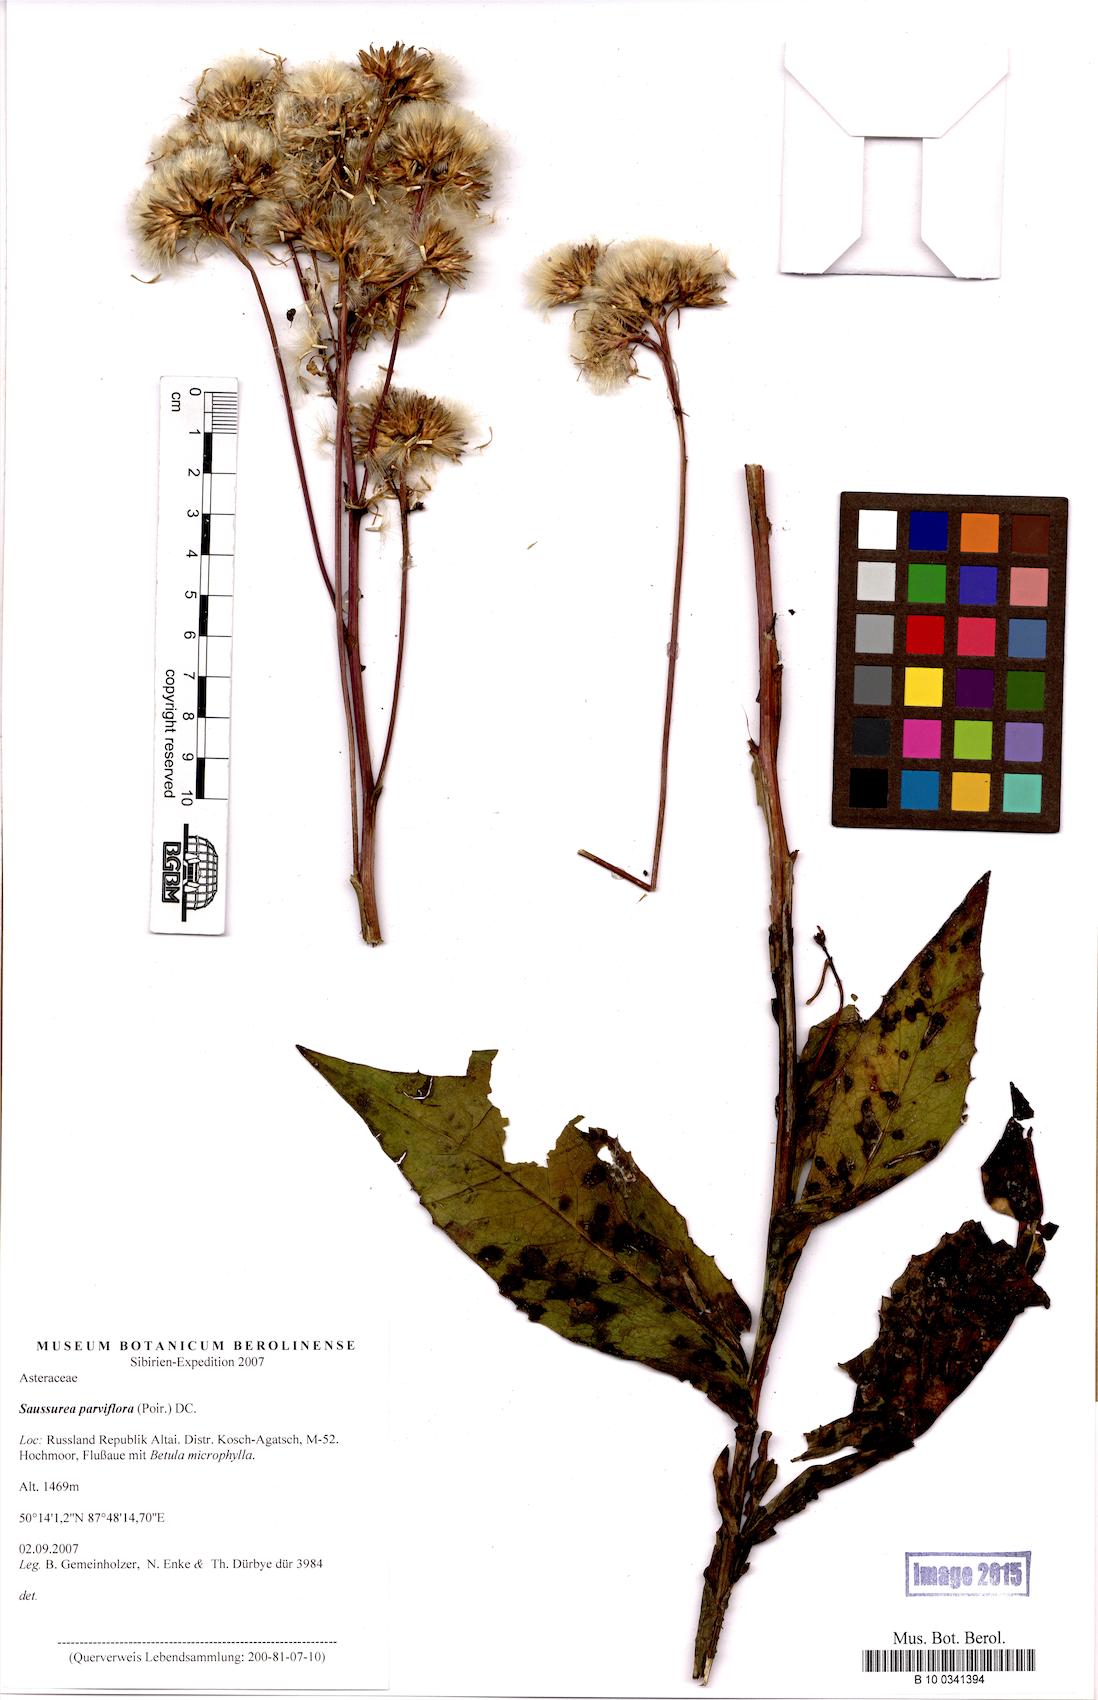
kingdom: Plantae
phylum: Tracheophyta
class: Magnoliopsida
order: Asterales
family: Asteraceae
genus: Saussurea
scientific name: Saussurea parviflora
